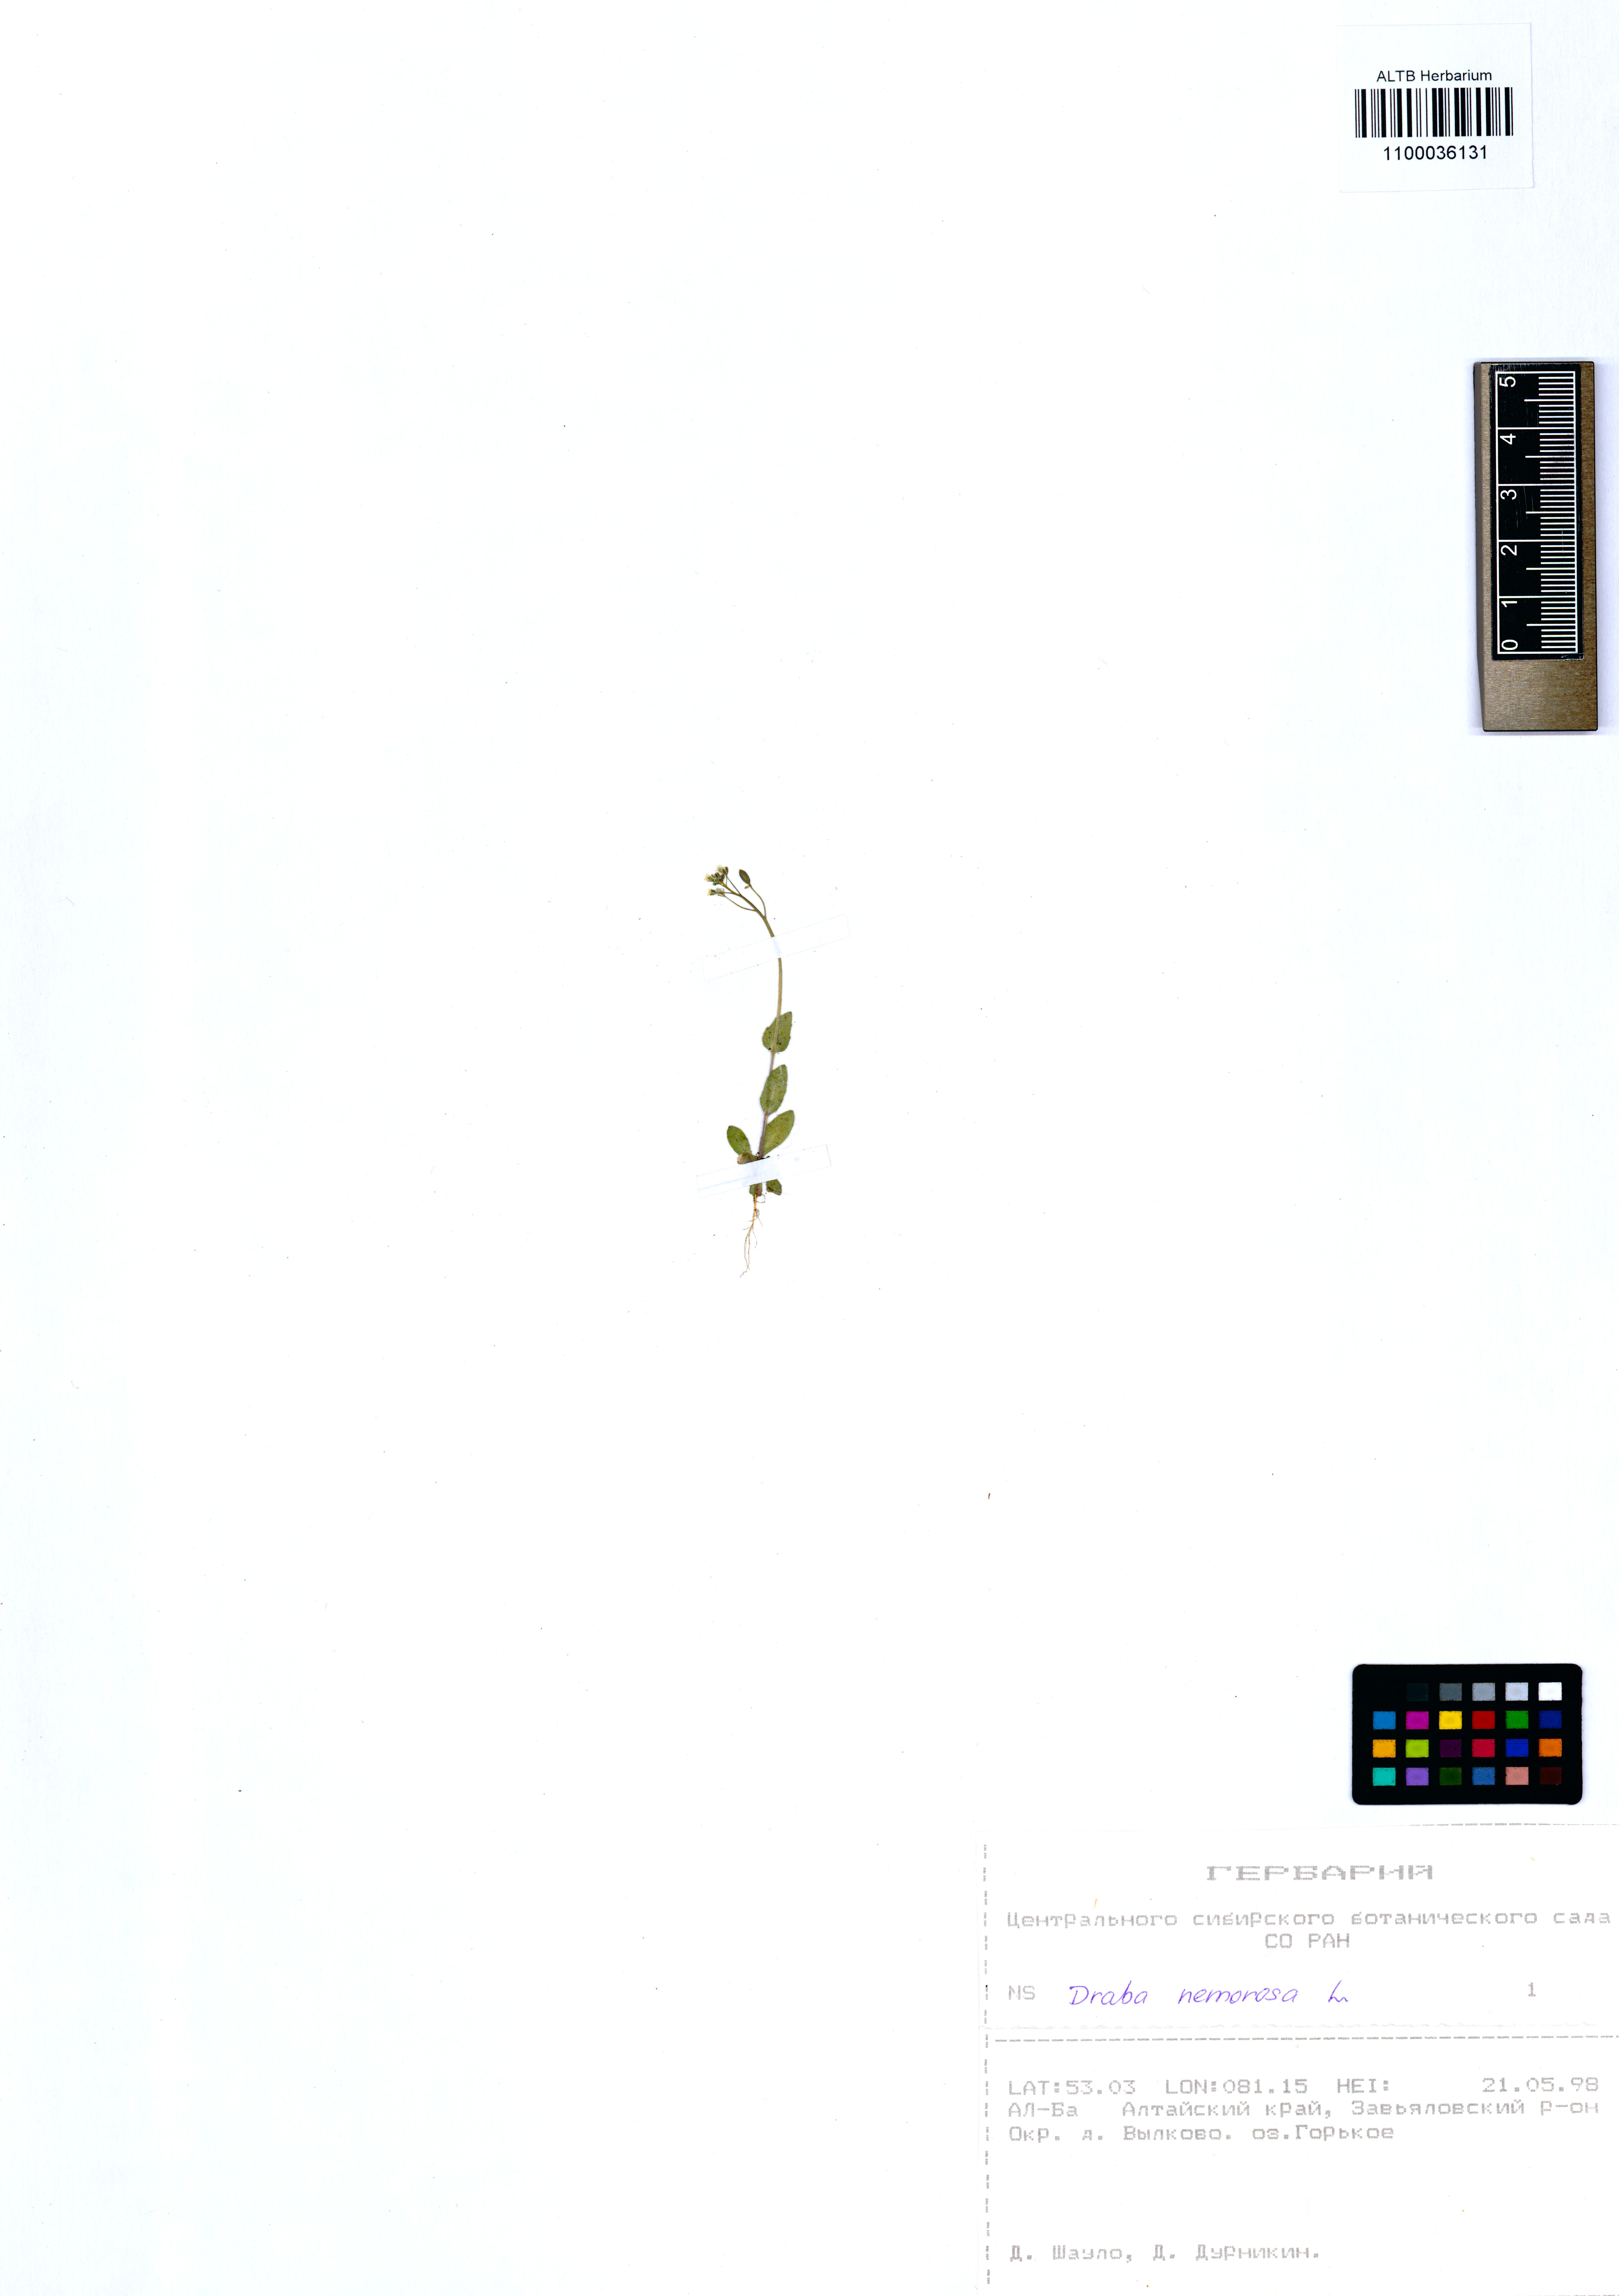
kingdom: Plantae
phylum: Tracheophyta
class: Magnoliopsida
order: Brassicales
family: Brassicaceae
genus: Draba
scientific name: Draba nemorosa
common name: Wood whitlow-grass
